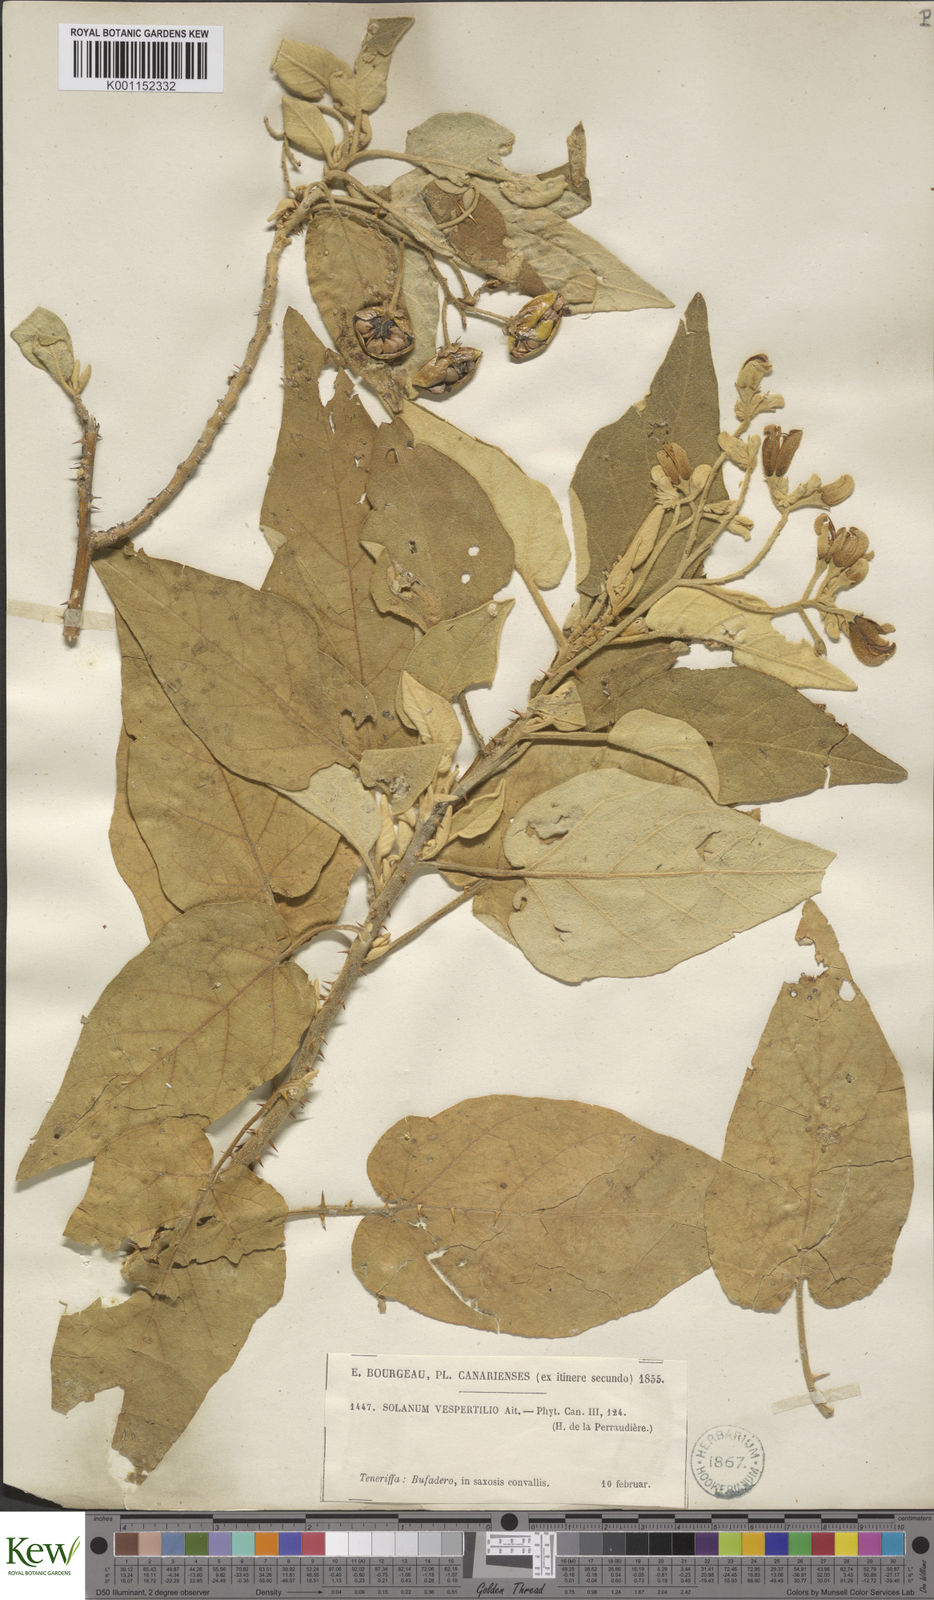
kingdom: Plantae
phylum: Tracheophyta
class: Magnoliopsida
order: Solanales
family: Solanaceae
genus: Solanum
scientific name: Solanum vespertilio
